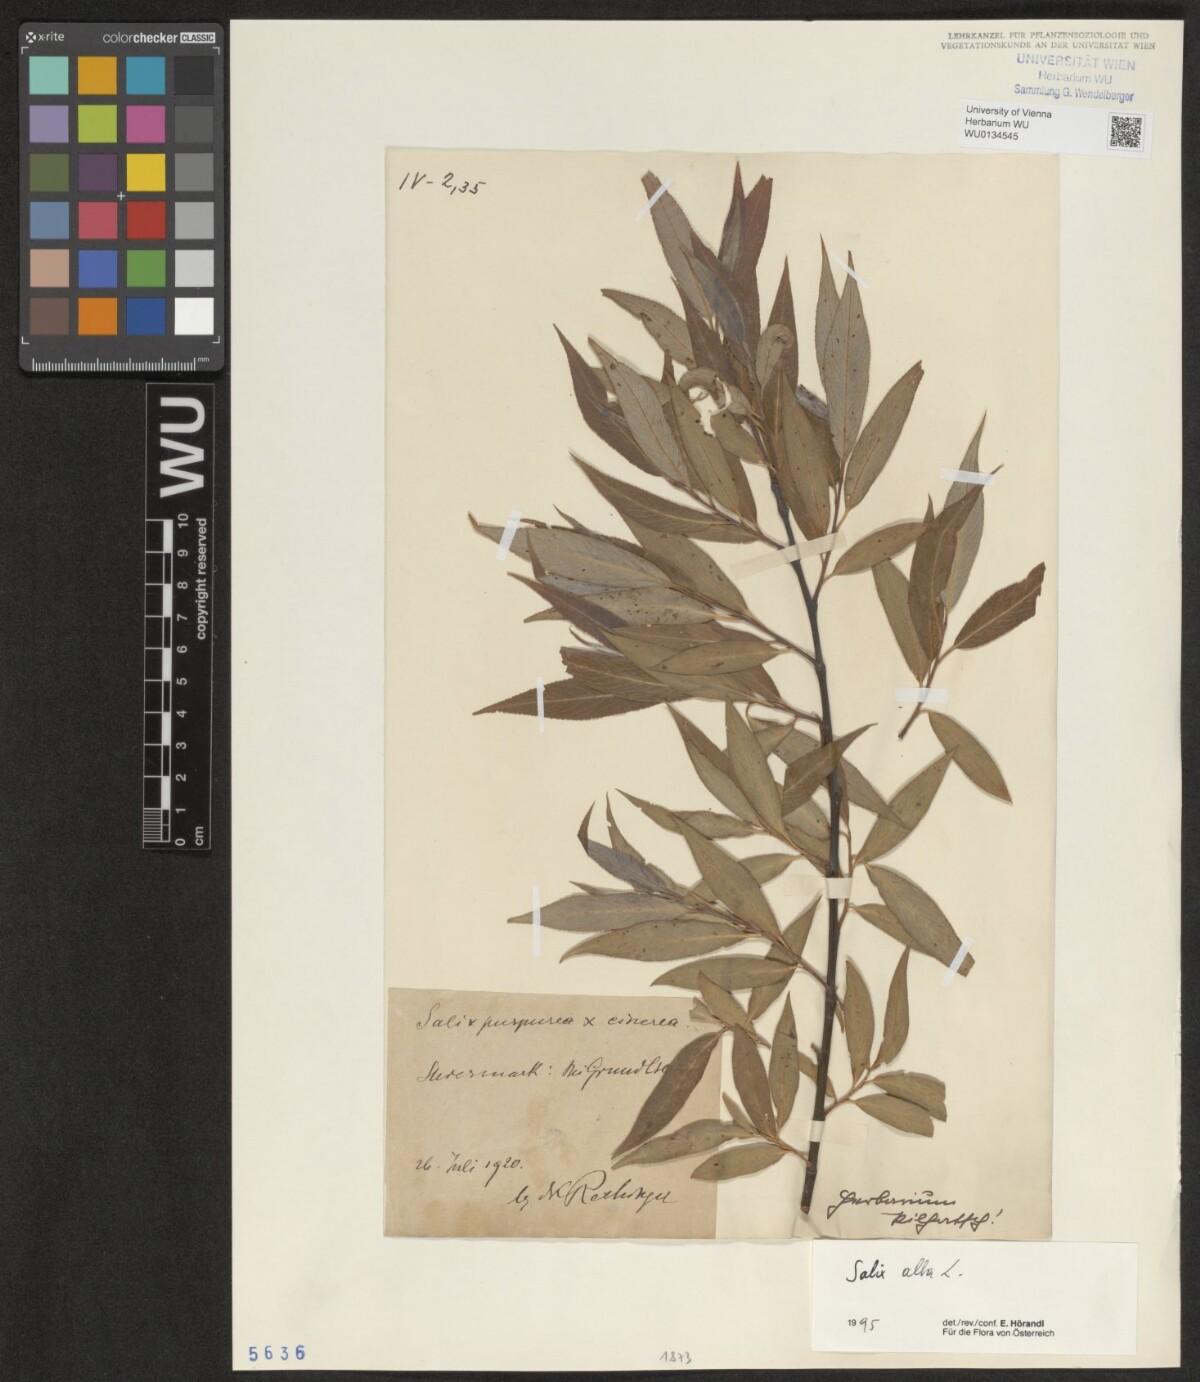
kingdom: Plantae
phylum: Tracheophyta
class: Magnoliopsida
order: Malpighiales
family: Salicaceae
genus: Salix
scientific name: Salix alba
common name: White willow
